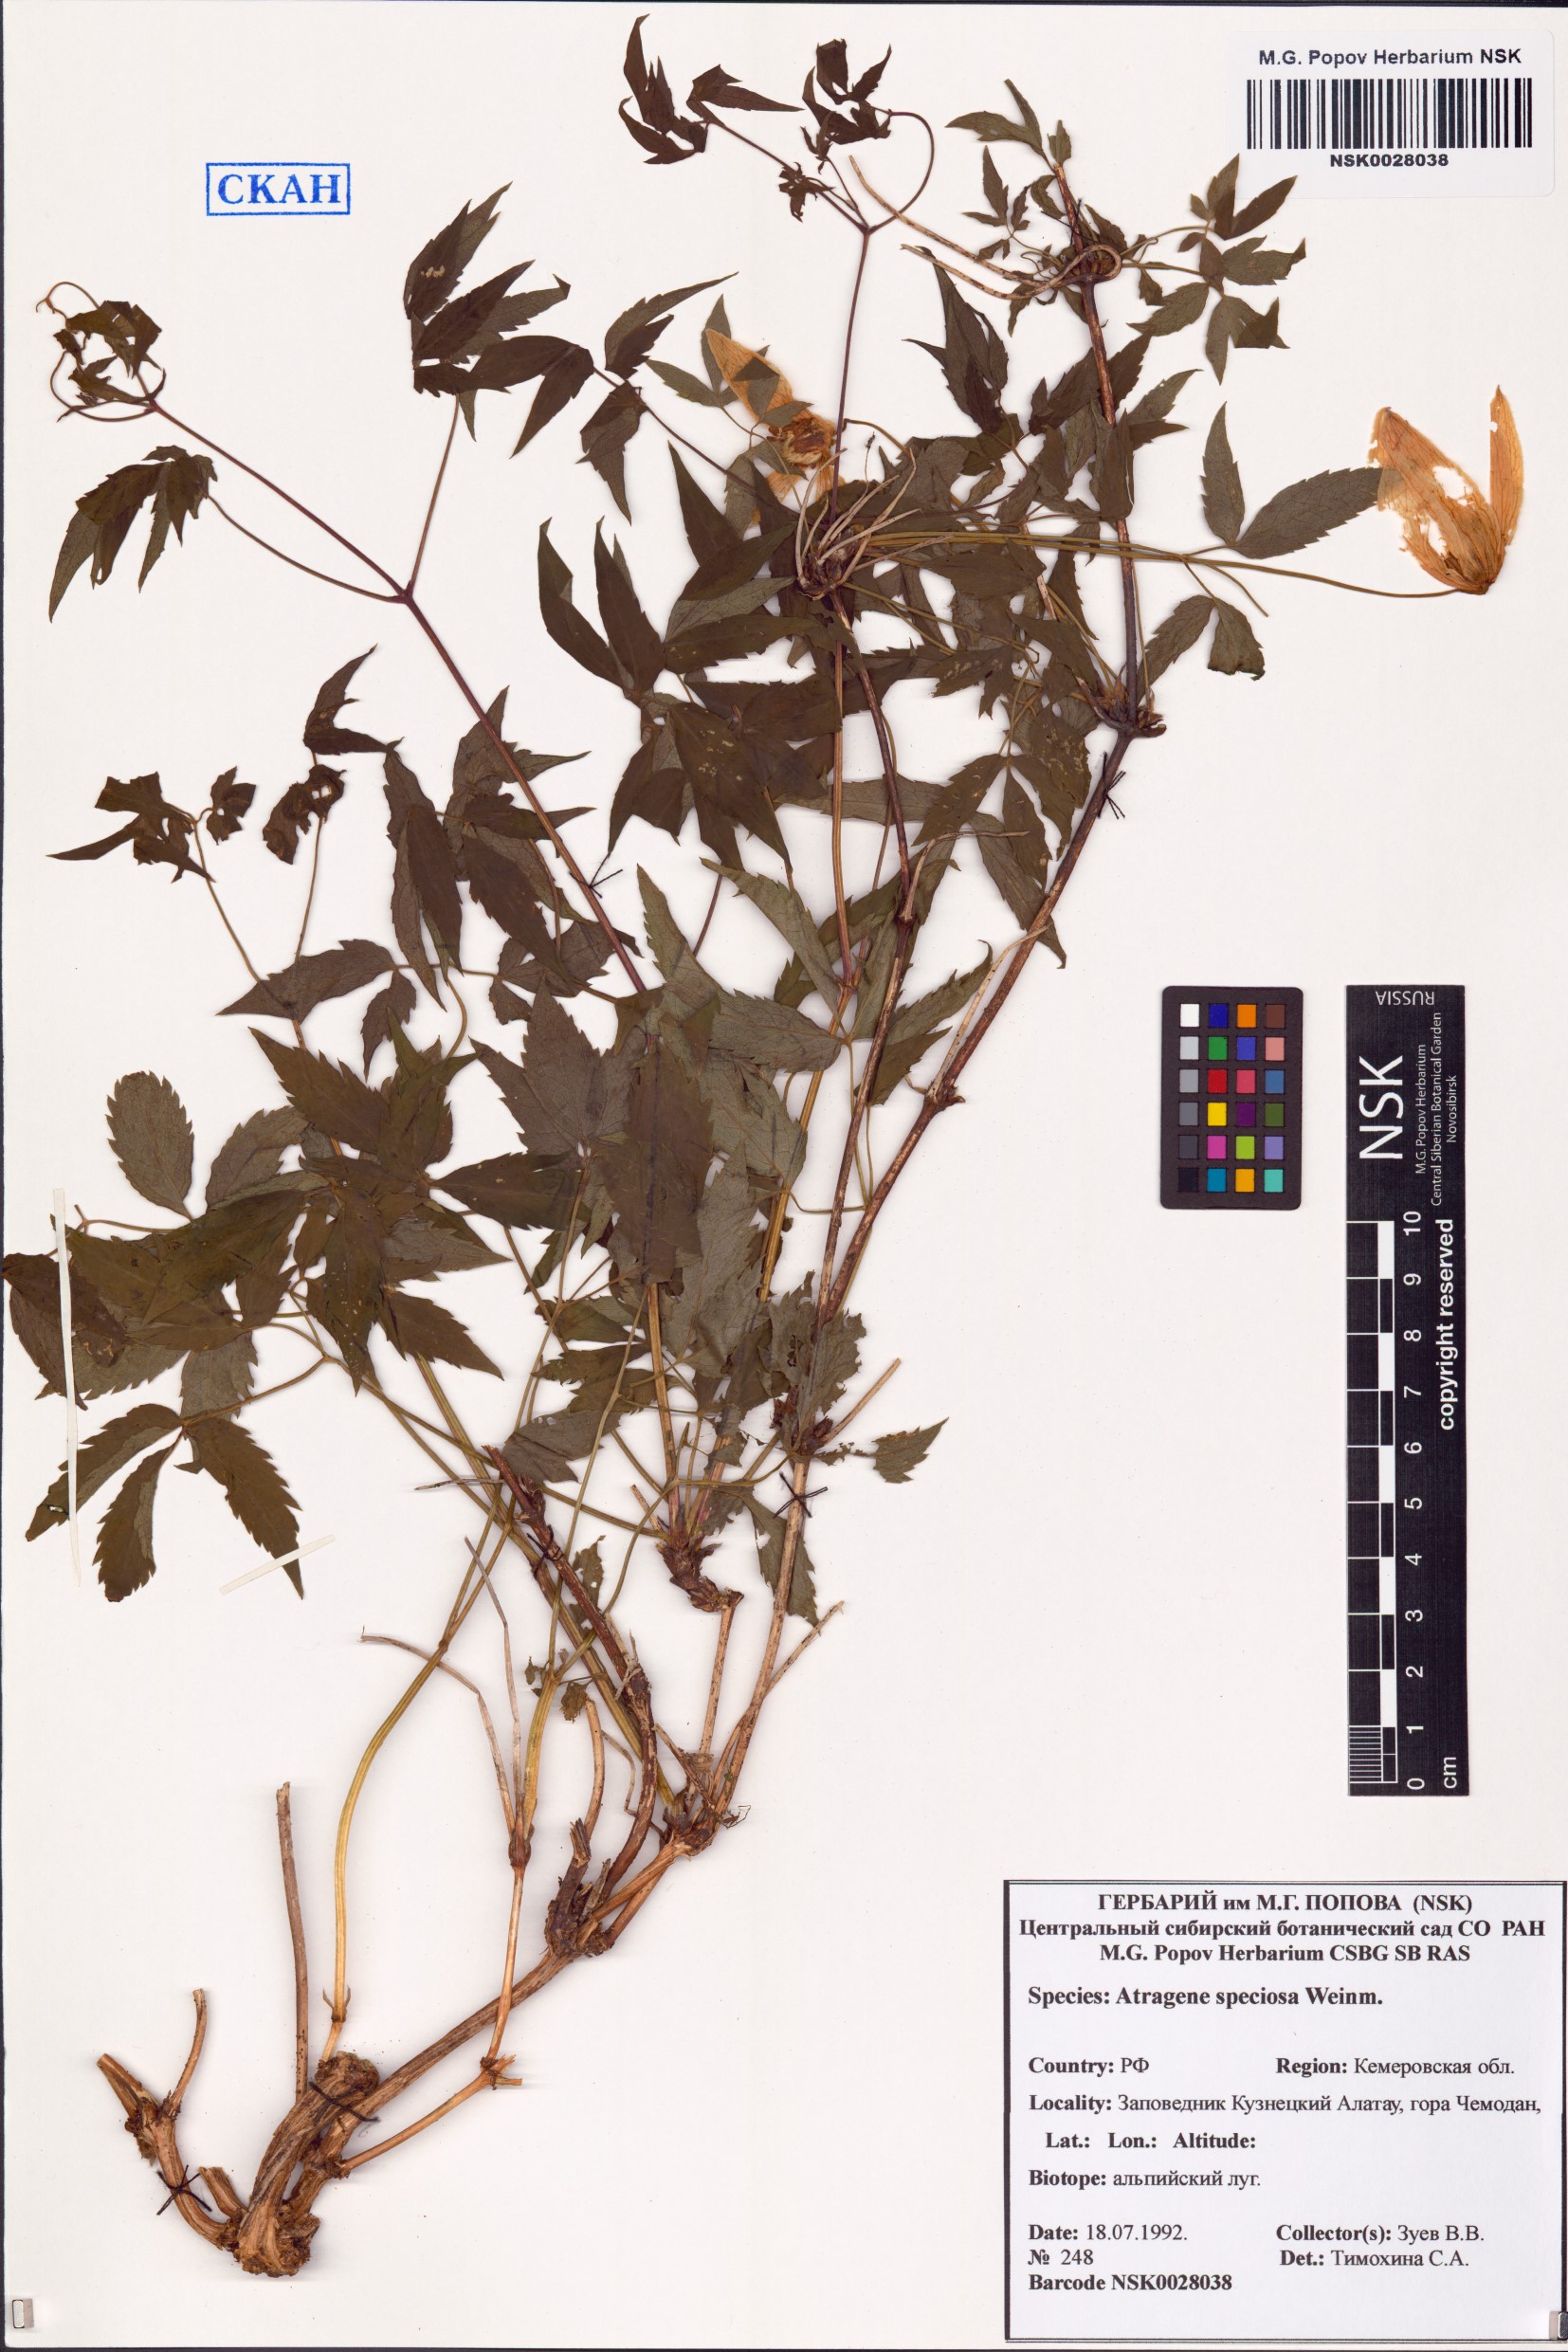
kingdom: Plantae
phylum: Tracheophyta
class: Magnoliopsida
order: Ranunculales
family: Ranunculaceae
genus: Clematis
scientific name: Clematis sibirica
